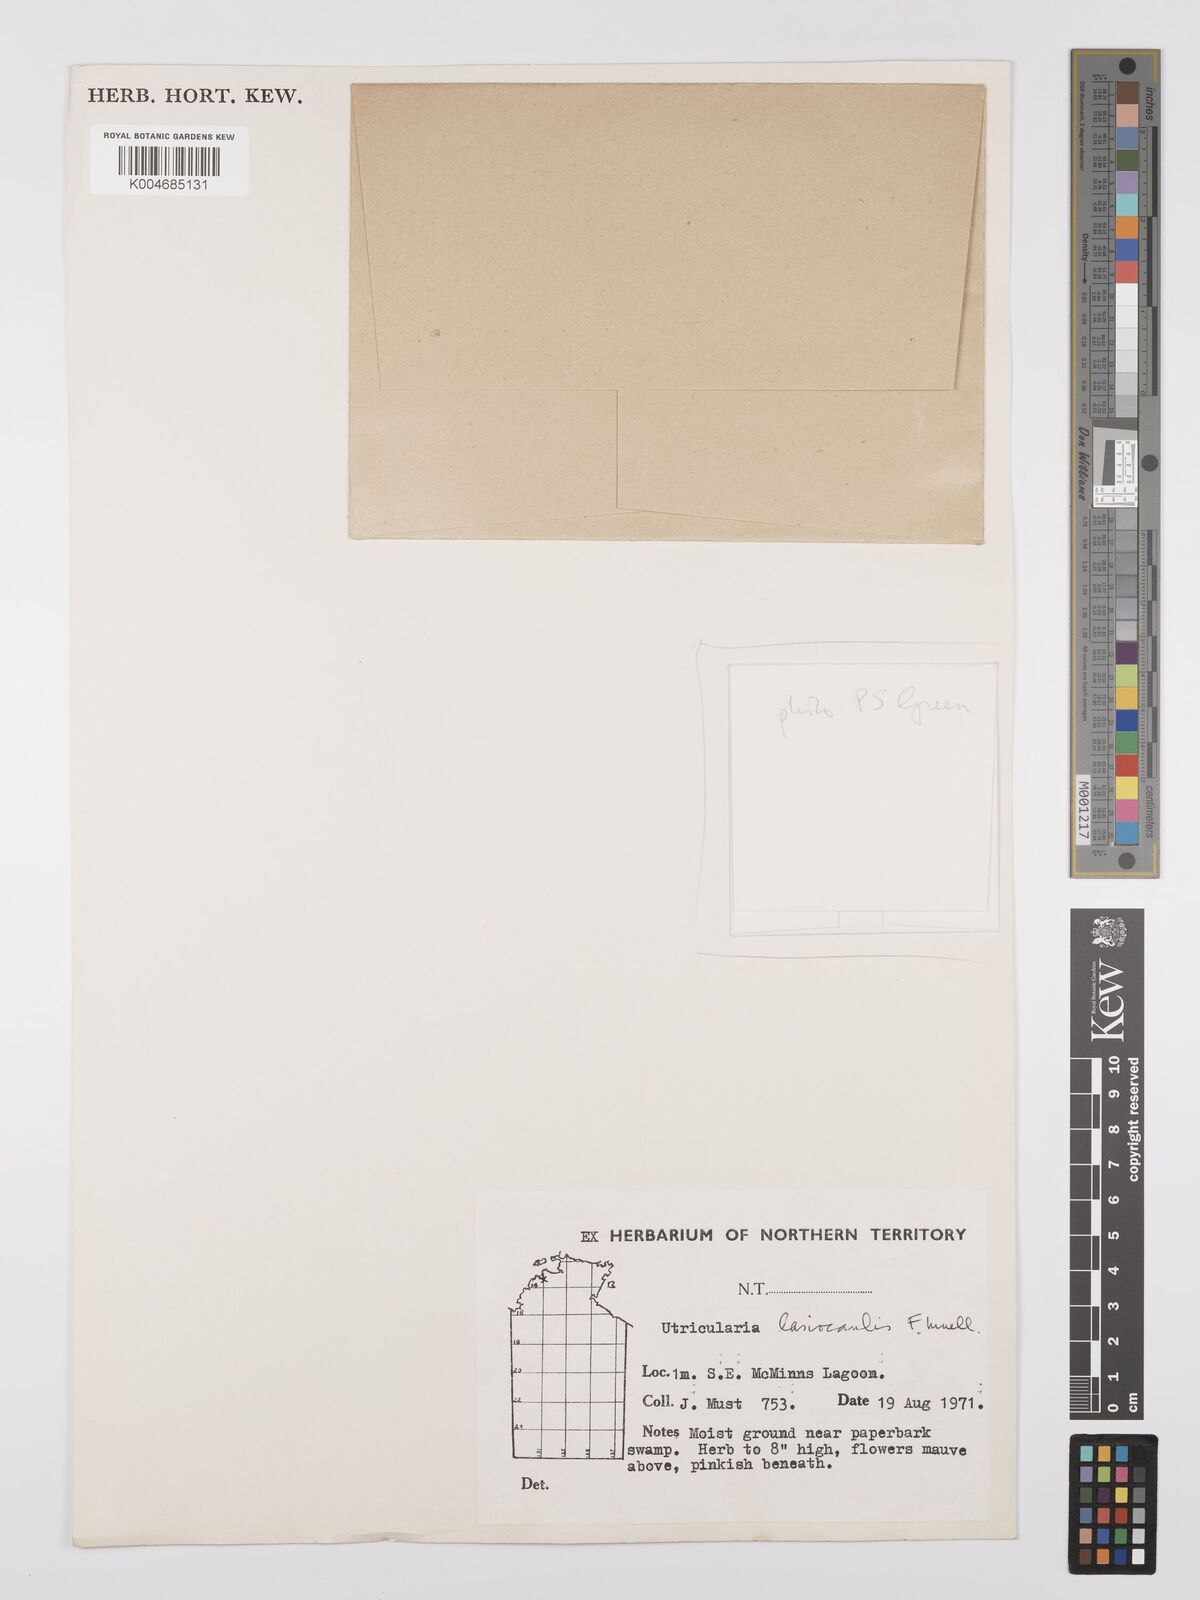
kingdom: Plantae
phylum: Tracheophyta
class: Magnoliopsida
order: Lamiales
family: Lentibulariaceae
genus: Utricularia
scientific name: Utricularia lasiocaulis
